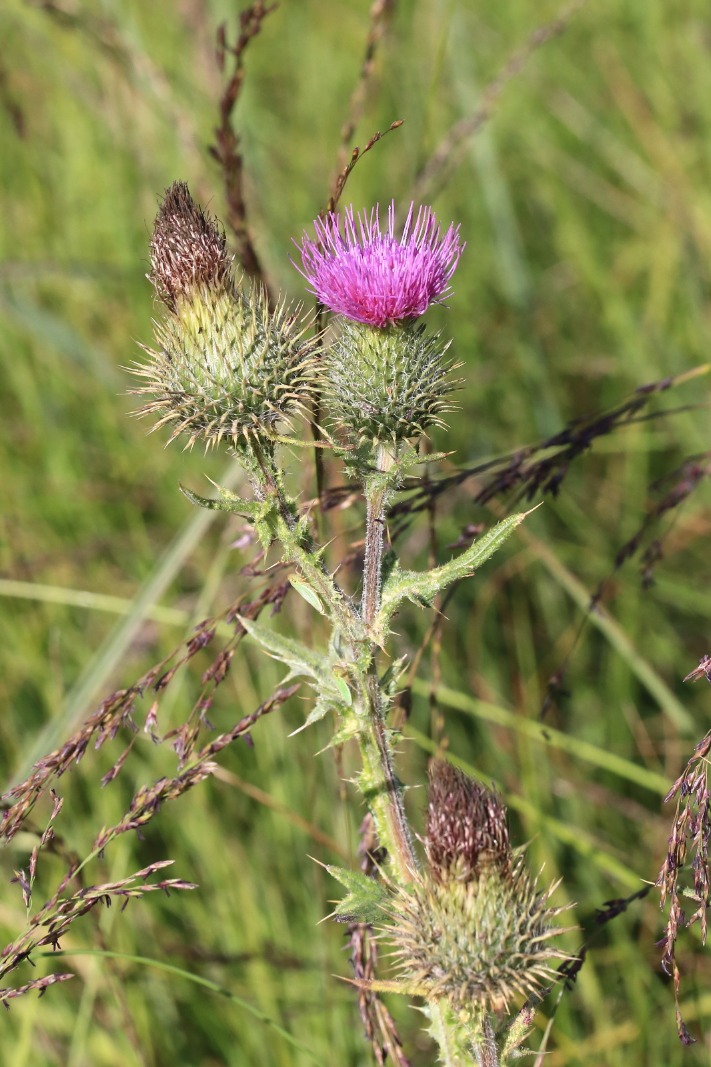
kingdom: Plantae
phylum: Tracheophyta
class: Magnoliopsida
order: Asterales
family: Asteraceae
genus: Cirsium
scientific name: Cirsium vulgare
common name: Horse-tidsel
